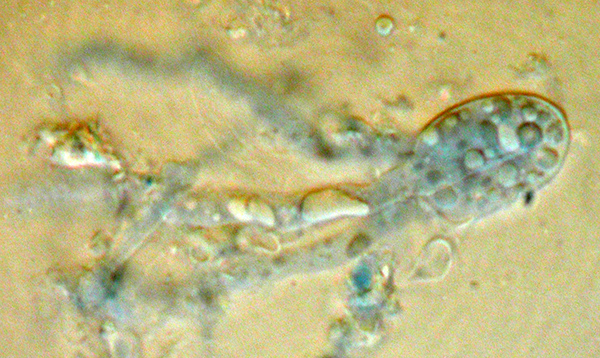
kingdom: Fungi
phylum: Basidiomycota
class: Agaricomycetes
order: Auriculariales
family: Auriculariaceae
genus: Alloexidiopsis
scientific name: Alloexidiopsis calcea
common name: kalkhvid bævrehinde
